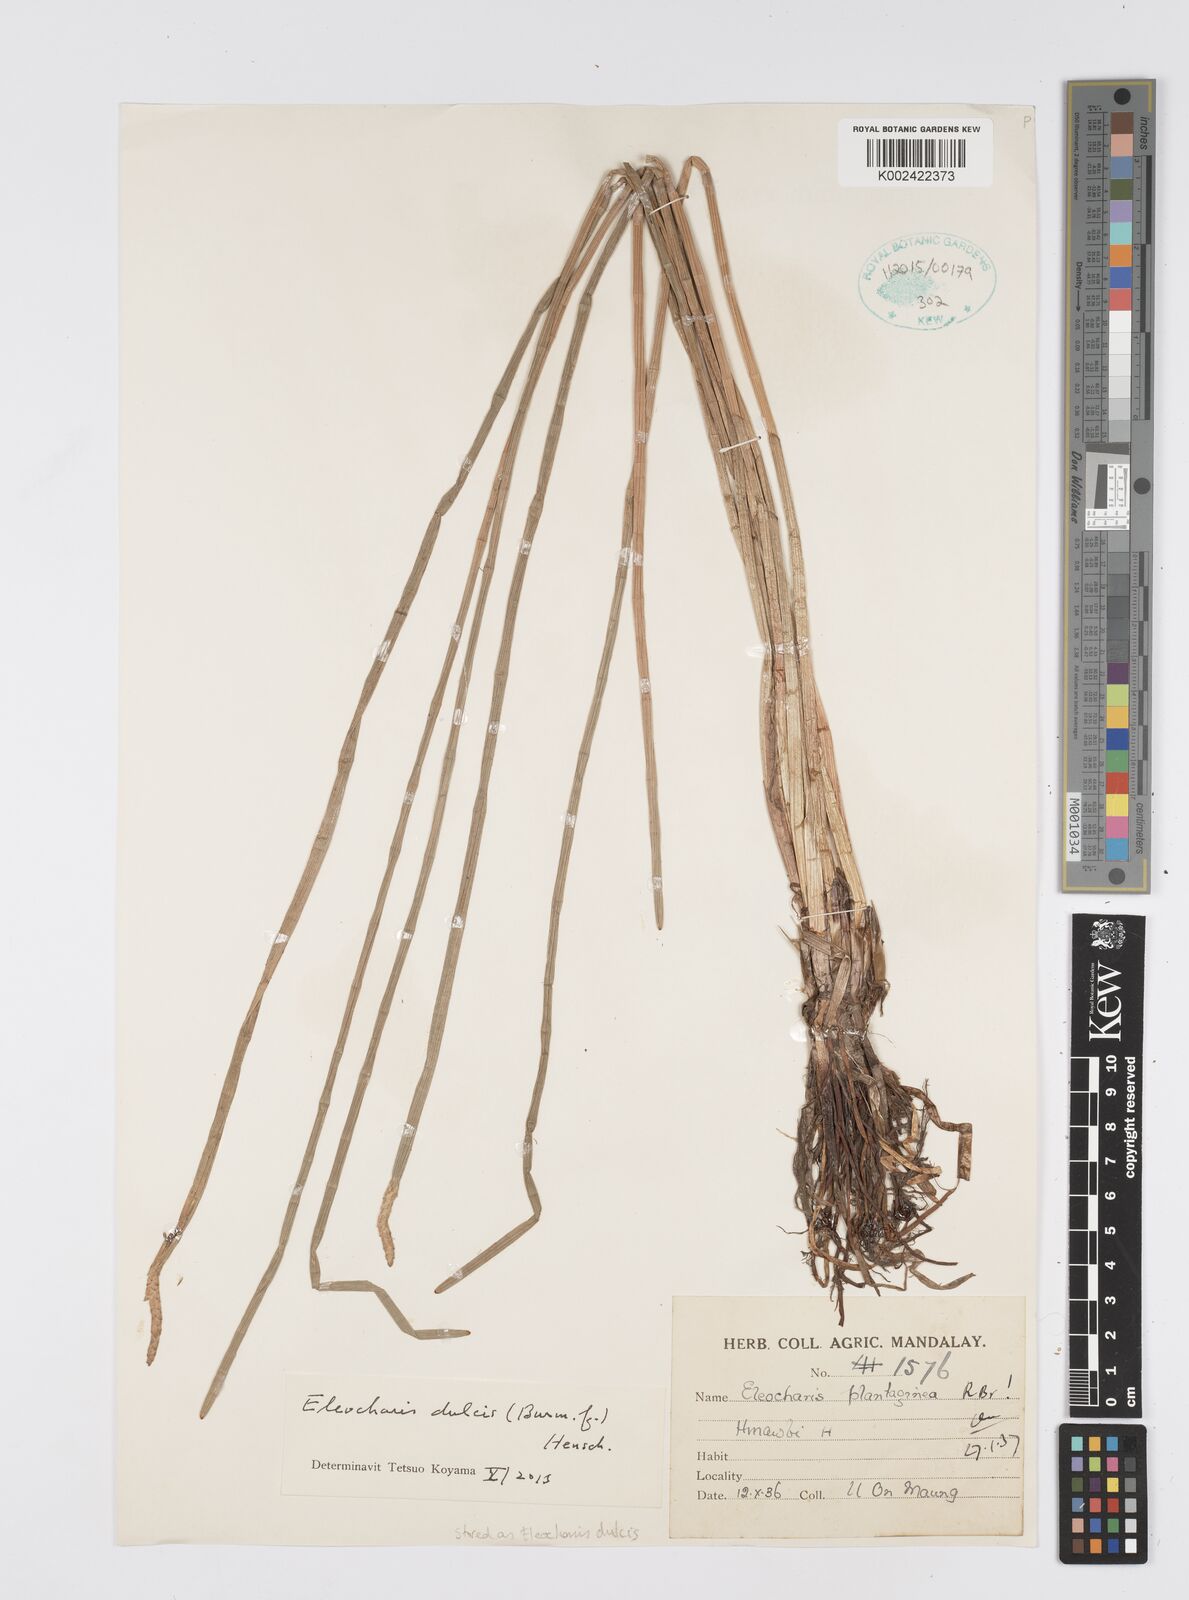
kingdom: Plantae
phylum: Tracheophyta
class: Liliopsida
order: Poales
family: Cyperaceae
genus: Eleocharis
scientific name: Eleocharis dulcis
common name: Chinese water chestnut
